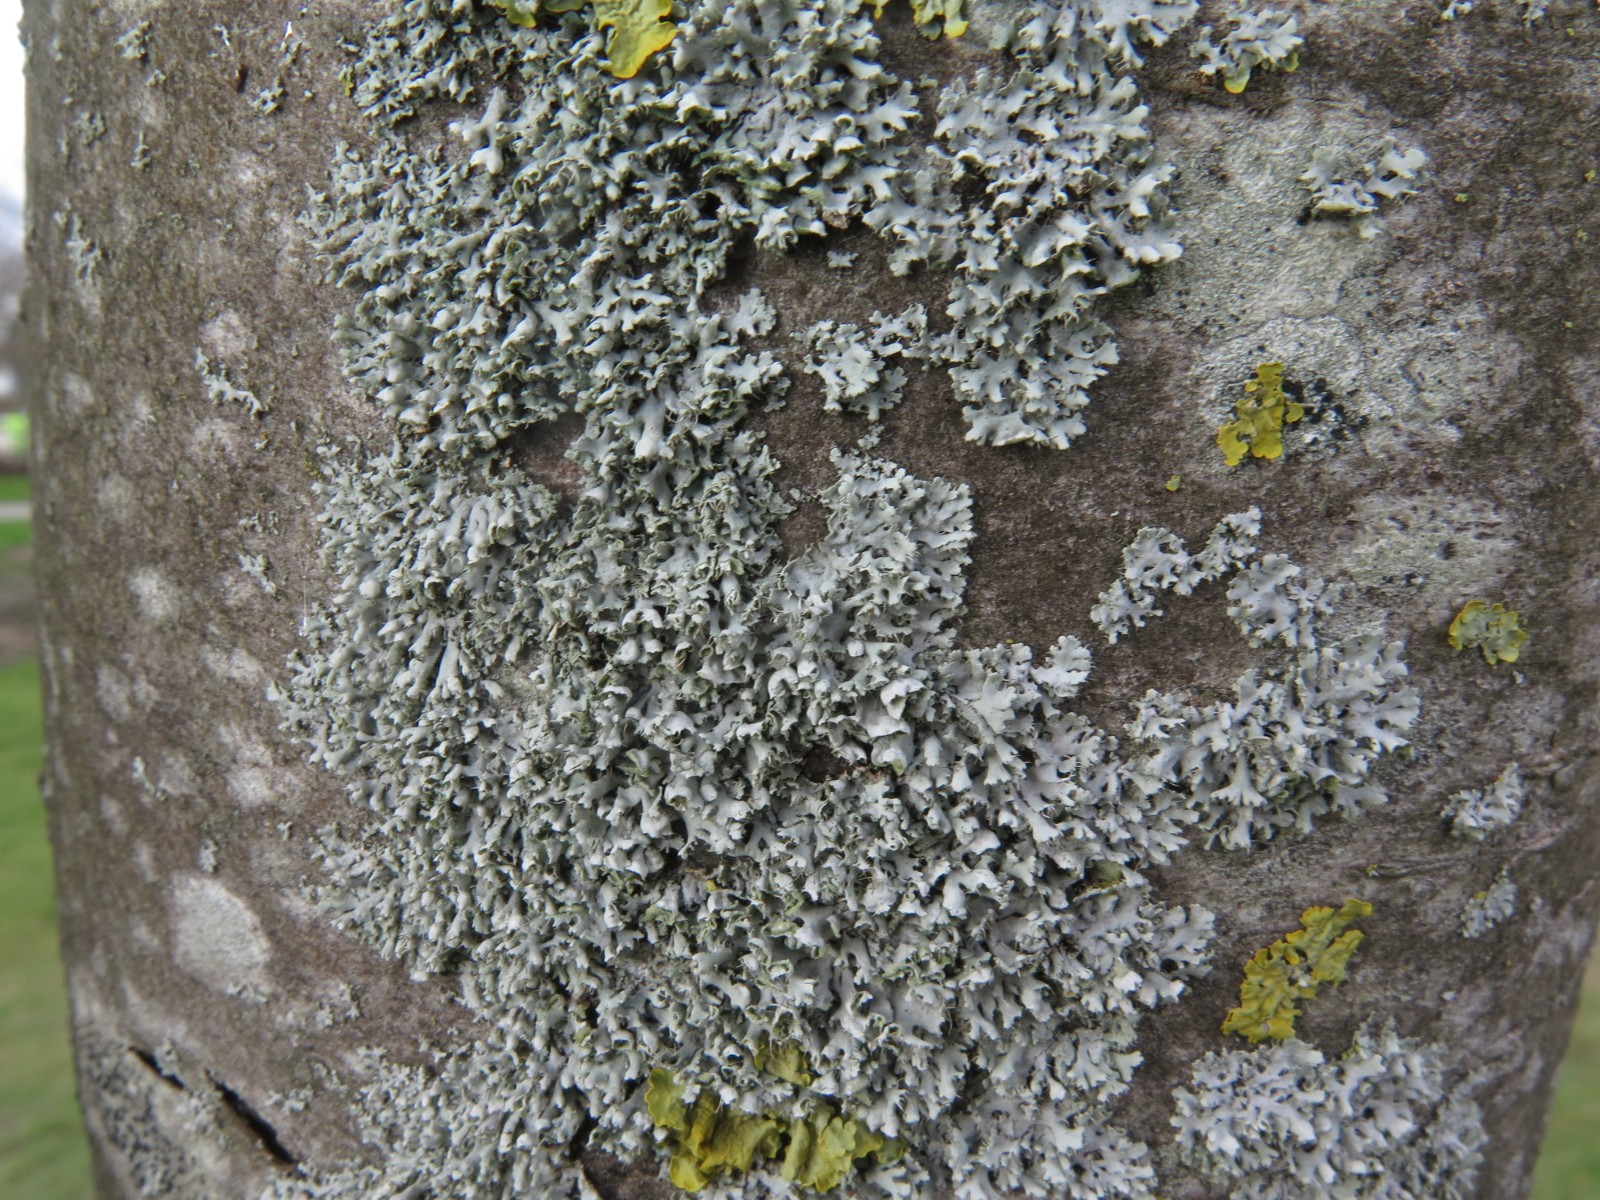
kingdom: Fungi
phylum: Ascomycota
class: Lecanoromycetes
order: Caliciales
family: Physciaceae
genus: Physcia
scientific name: Physcia adscendens
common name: hætte-rosetlav
